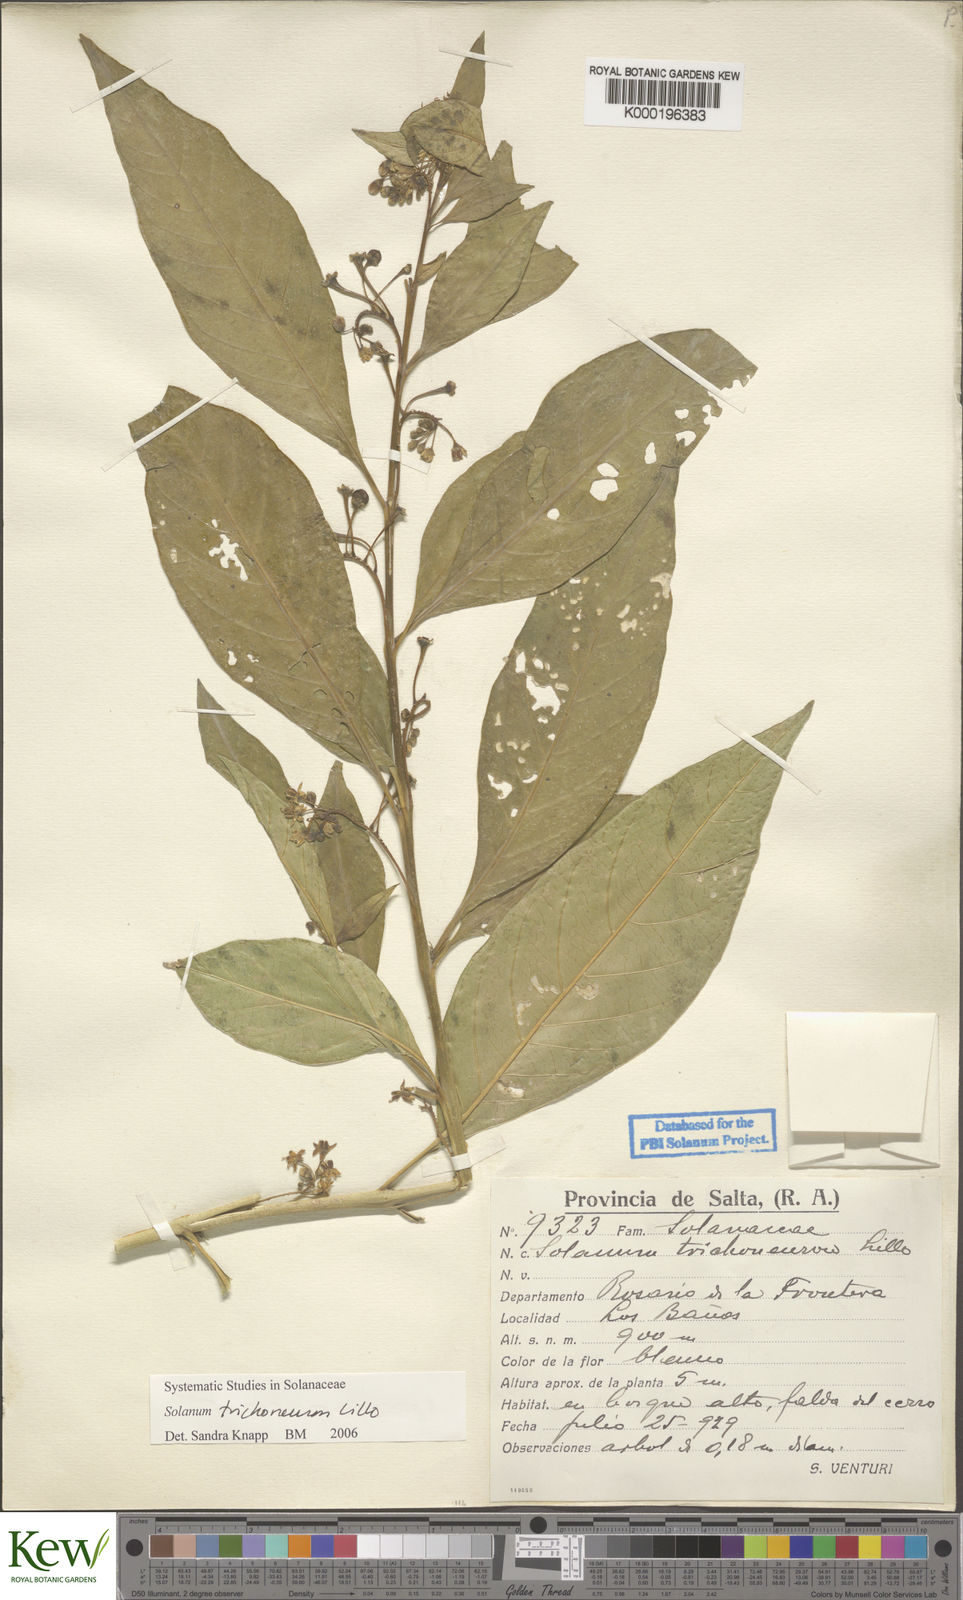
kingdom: Plantae
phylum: Tracheophyta
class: Magnoliopsida
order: Solanales
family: Solanaceae
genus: Solanum
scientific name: Solanum oblongum
